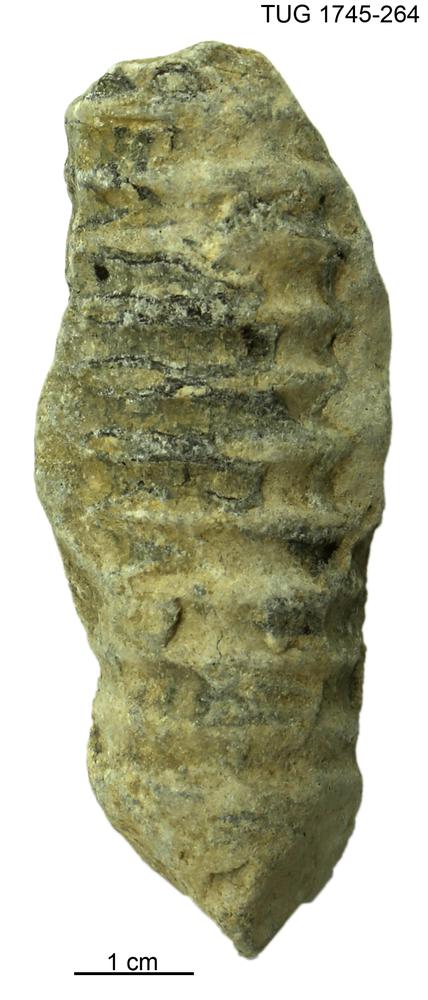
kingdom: Animalia
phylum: Mollusca
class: Cephalopoda
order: Orthocerida
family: Dawsonoceratidae
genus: Palaeodawsonocerina
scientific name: Palaeodawsonocerina Spyroceras senckenbergi
